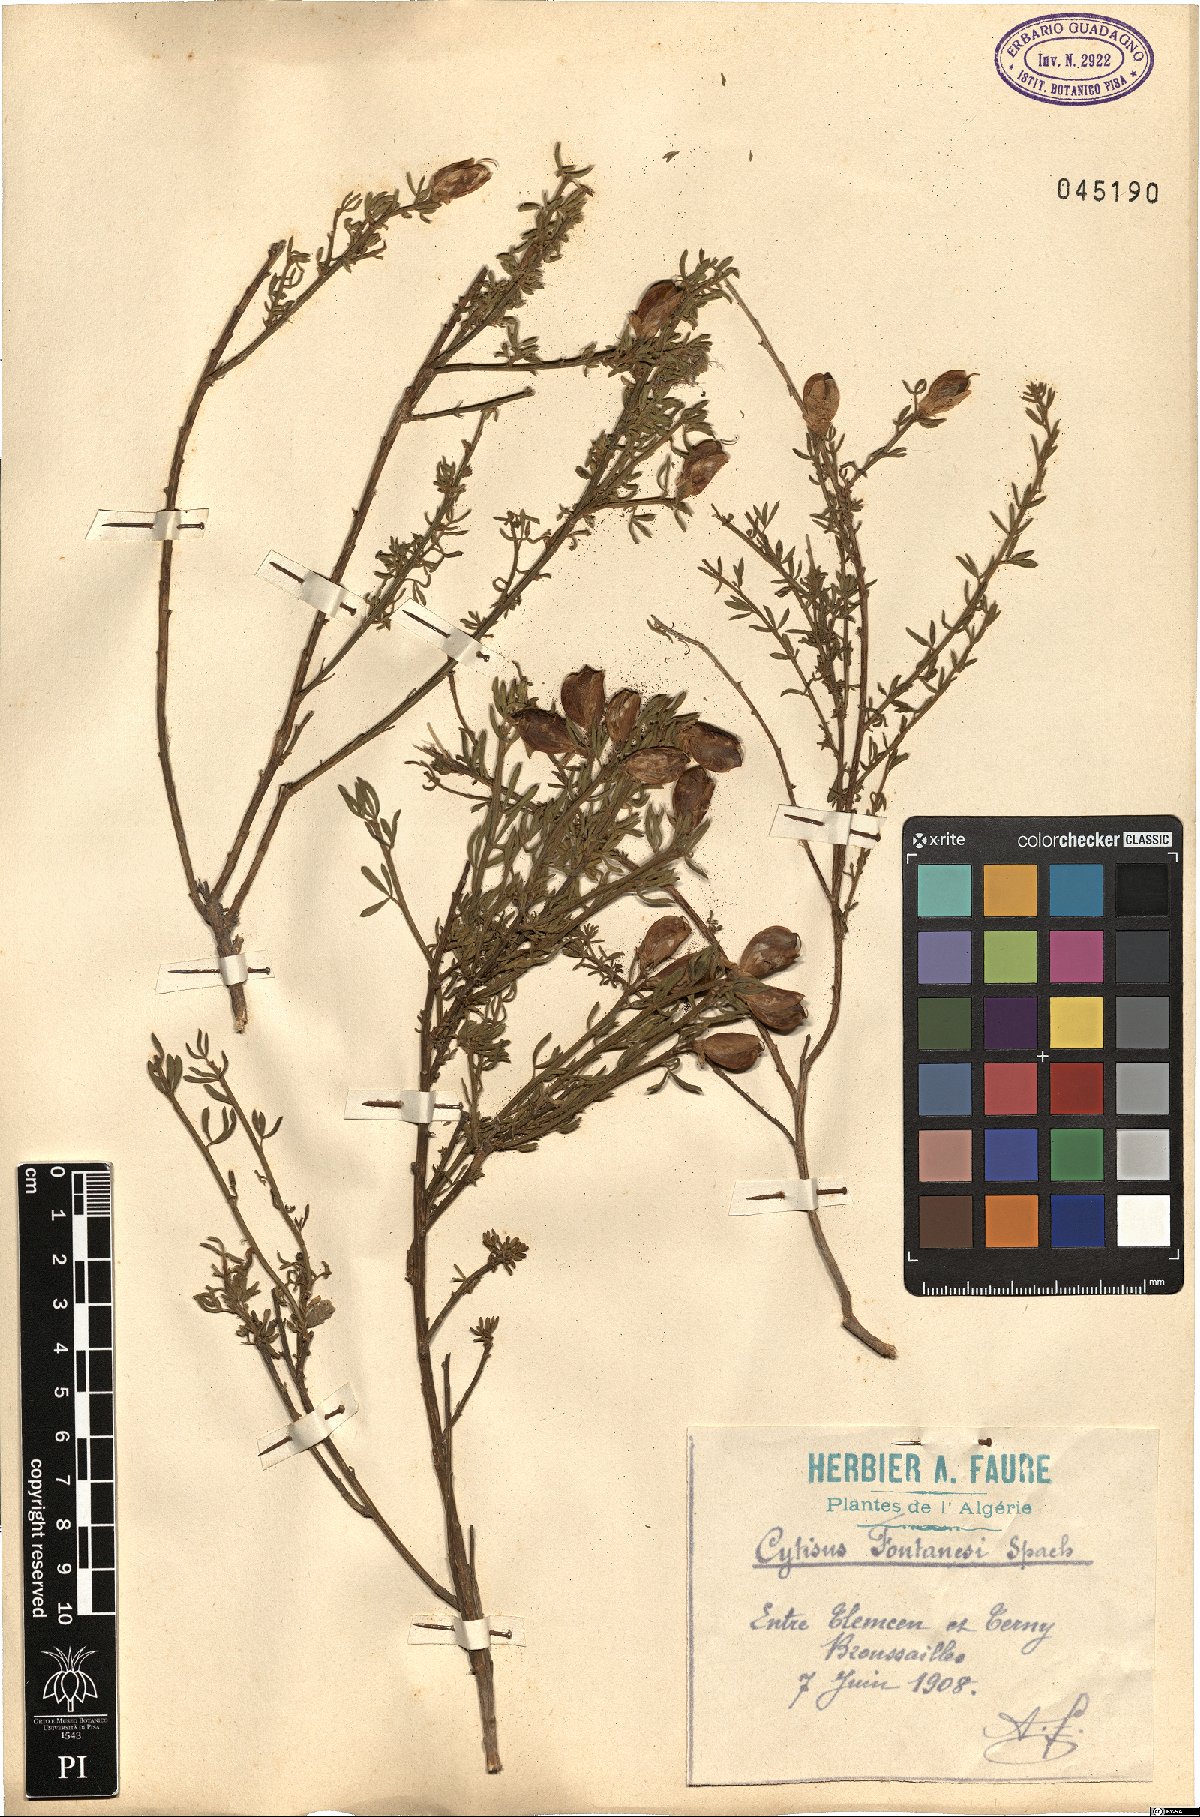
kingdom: Plantae
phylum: Tracheophyta
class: Magnoliopsida
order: Fabales
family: Fabaceae
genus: Cytisus
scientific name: Cytisus fontanesii
